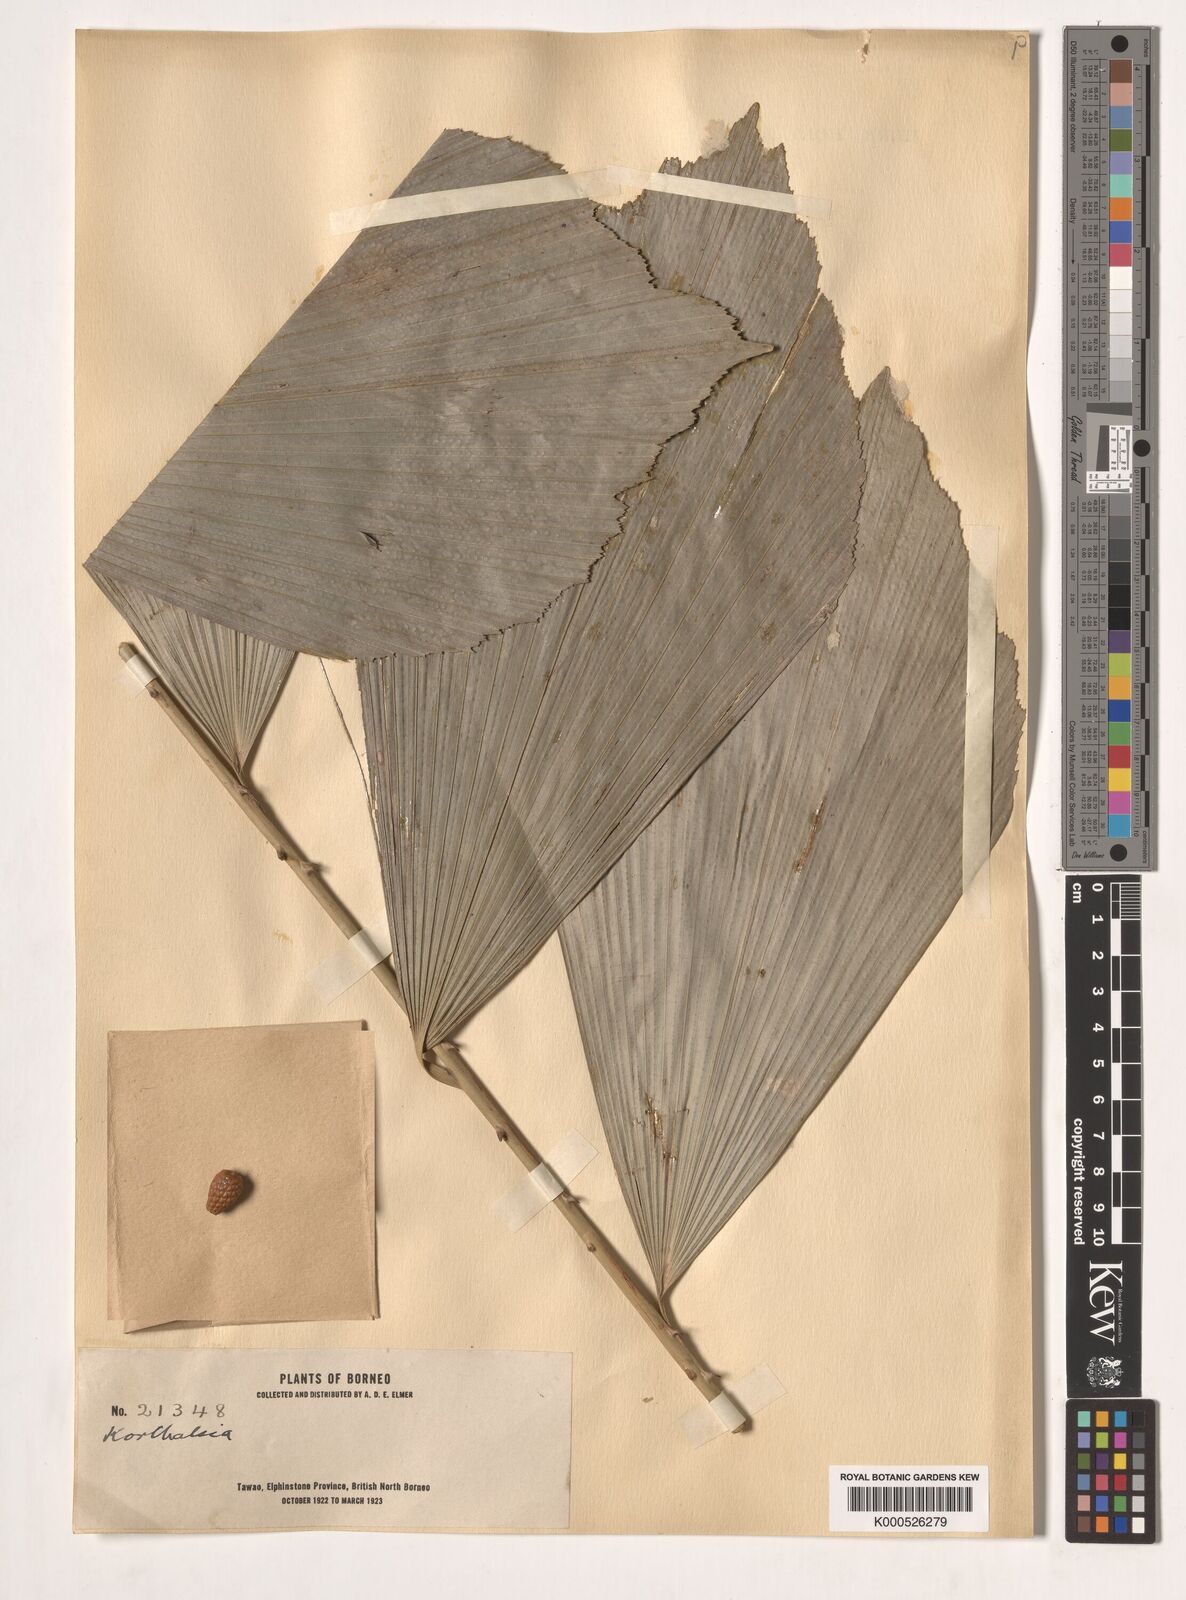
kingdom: Plantae
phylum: Tracheophyta
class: Liliopsida
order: Arecales
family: Arecaceae
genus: Korthalsia
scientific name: Korthalsia
